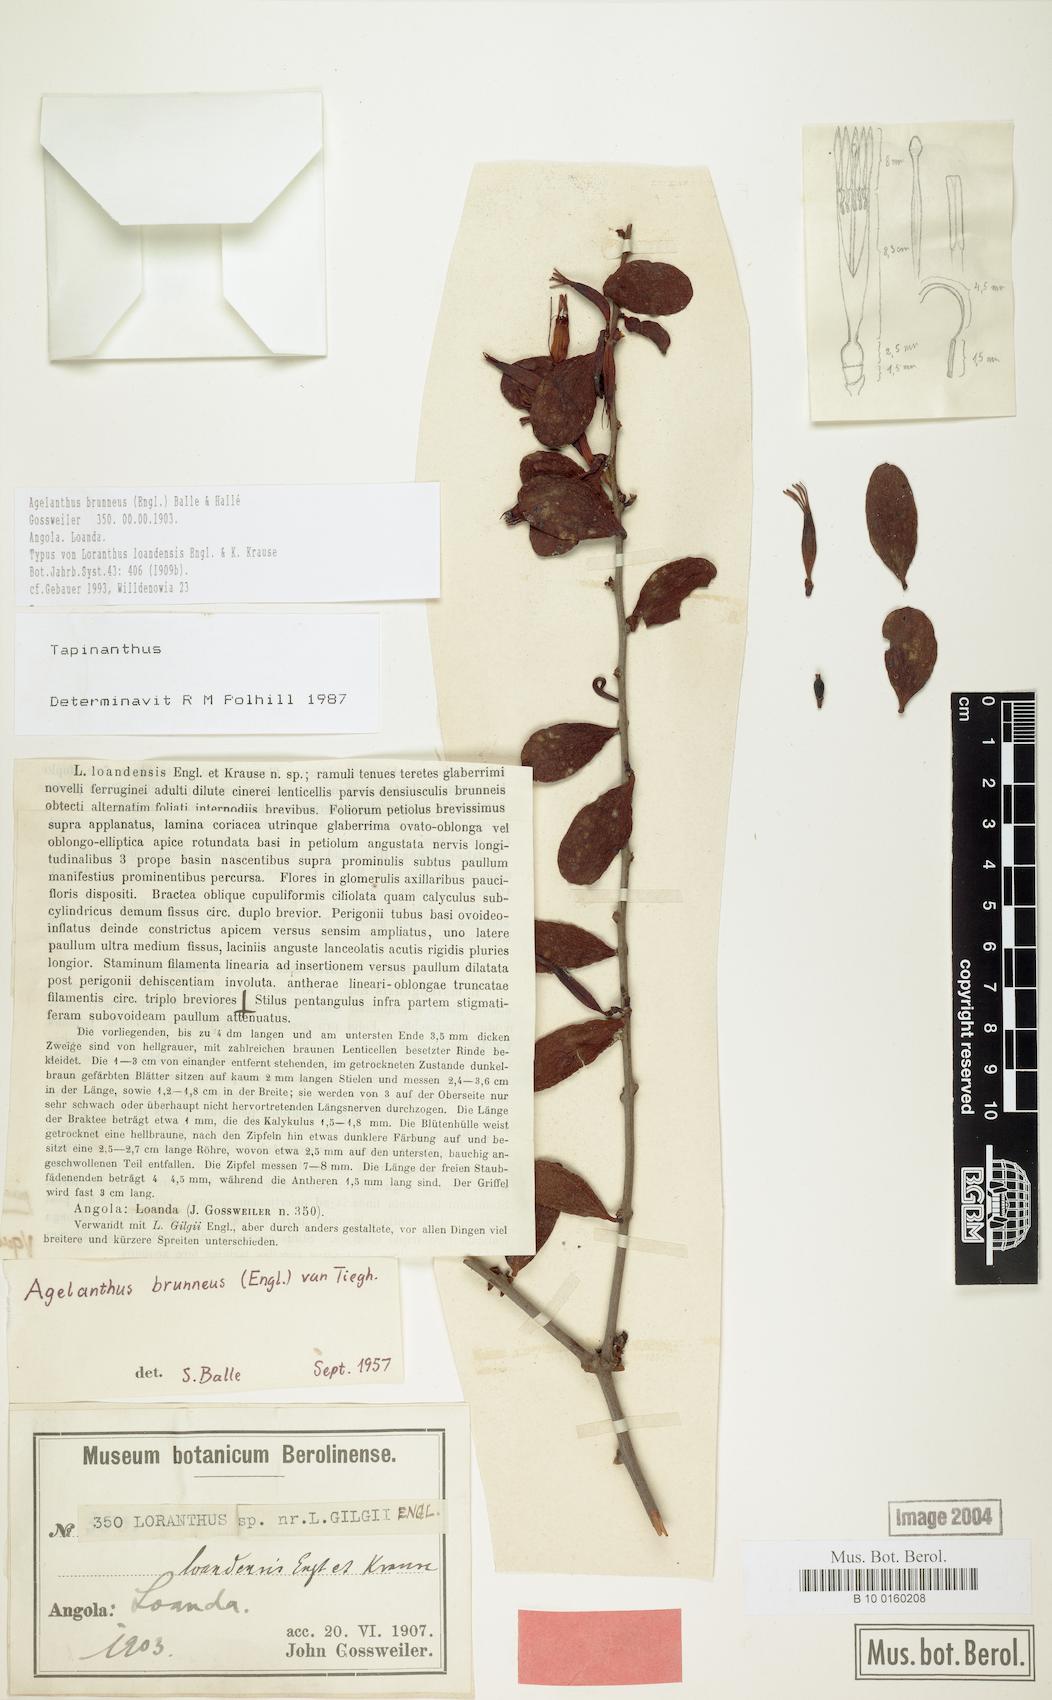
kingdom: Plantae
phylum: Tracheophyta
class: Magnoliopsida
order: Santalales
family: Loranthaceae
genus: Agelanthus
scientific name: Agelanthus brunneus
